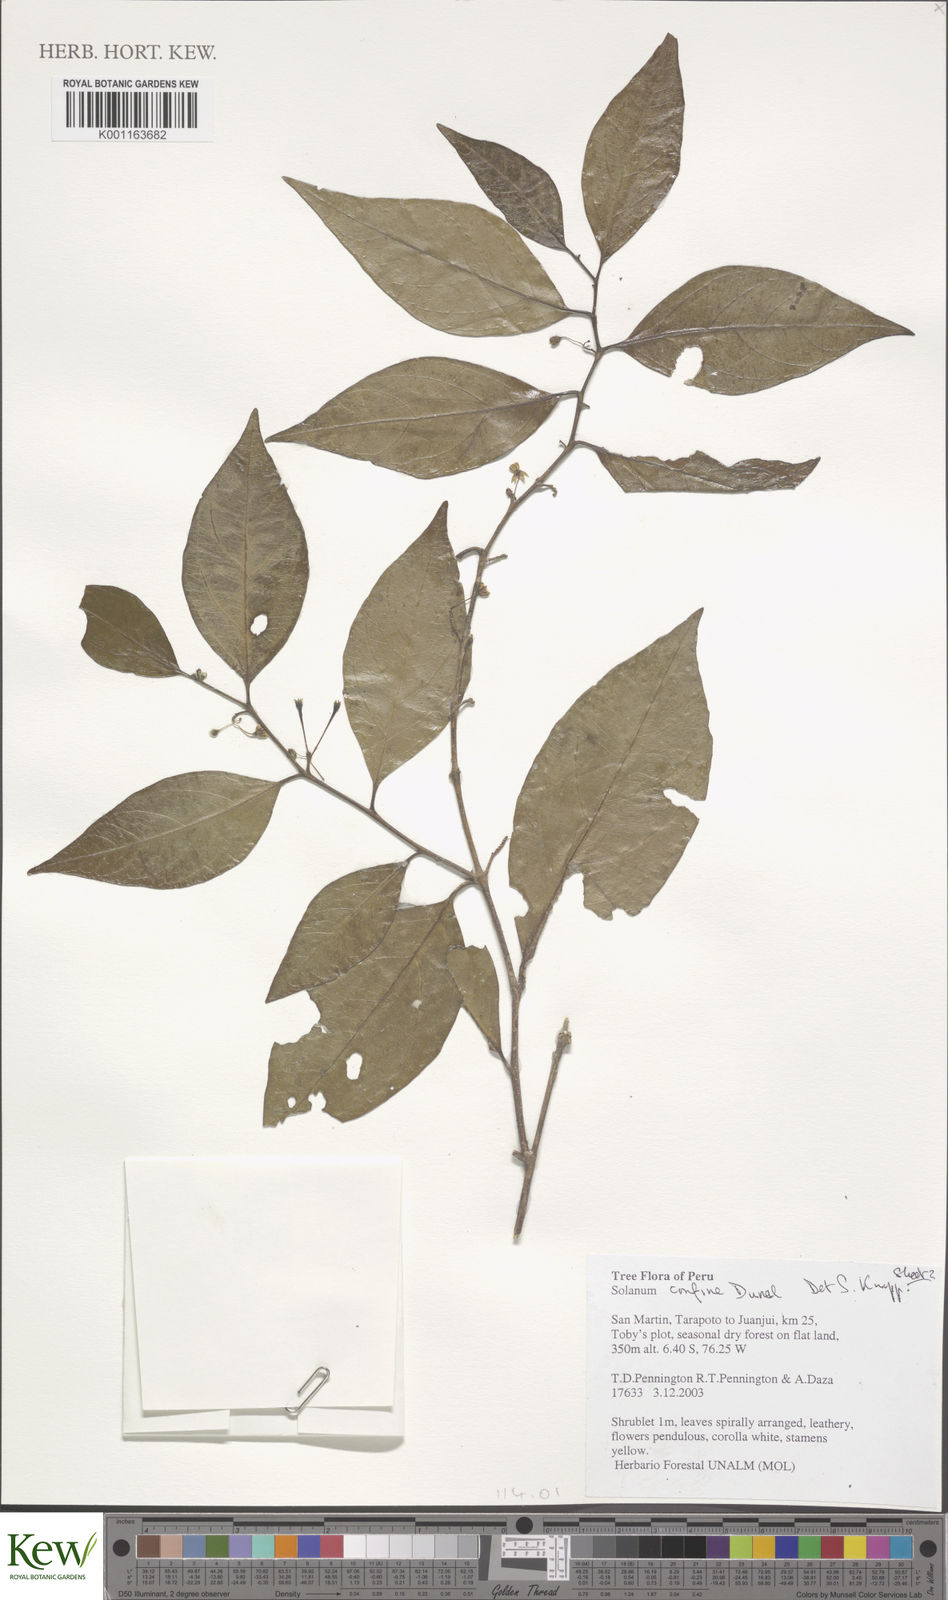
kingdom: Plantae
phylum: Tracheophyta
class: Magnoliopsida
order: Solanales
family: Solanaceae
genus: Solanum
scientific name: Solanum confine
